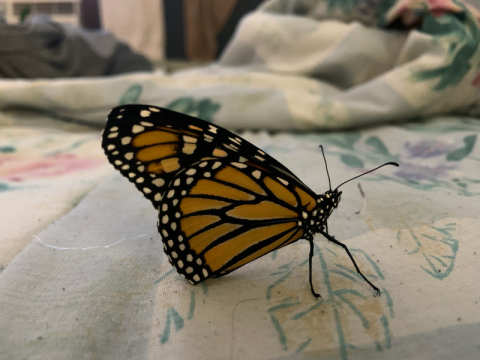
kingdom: Animalia
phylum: Arthropoda
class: Insecta
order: Lepidoptera
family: Nymphalidae
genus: Danaus
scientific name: Danaus plexippus
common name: Monarch
